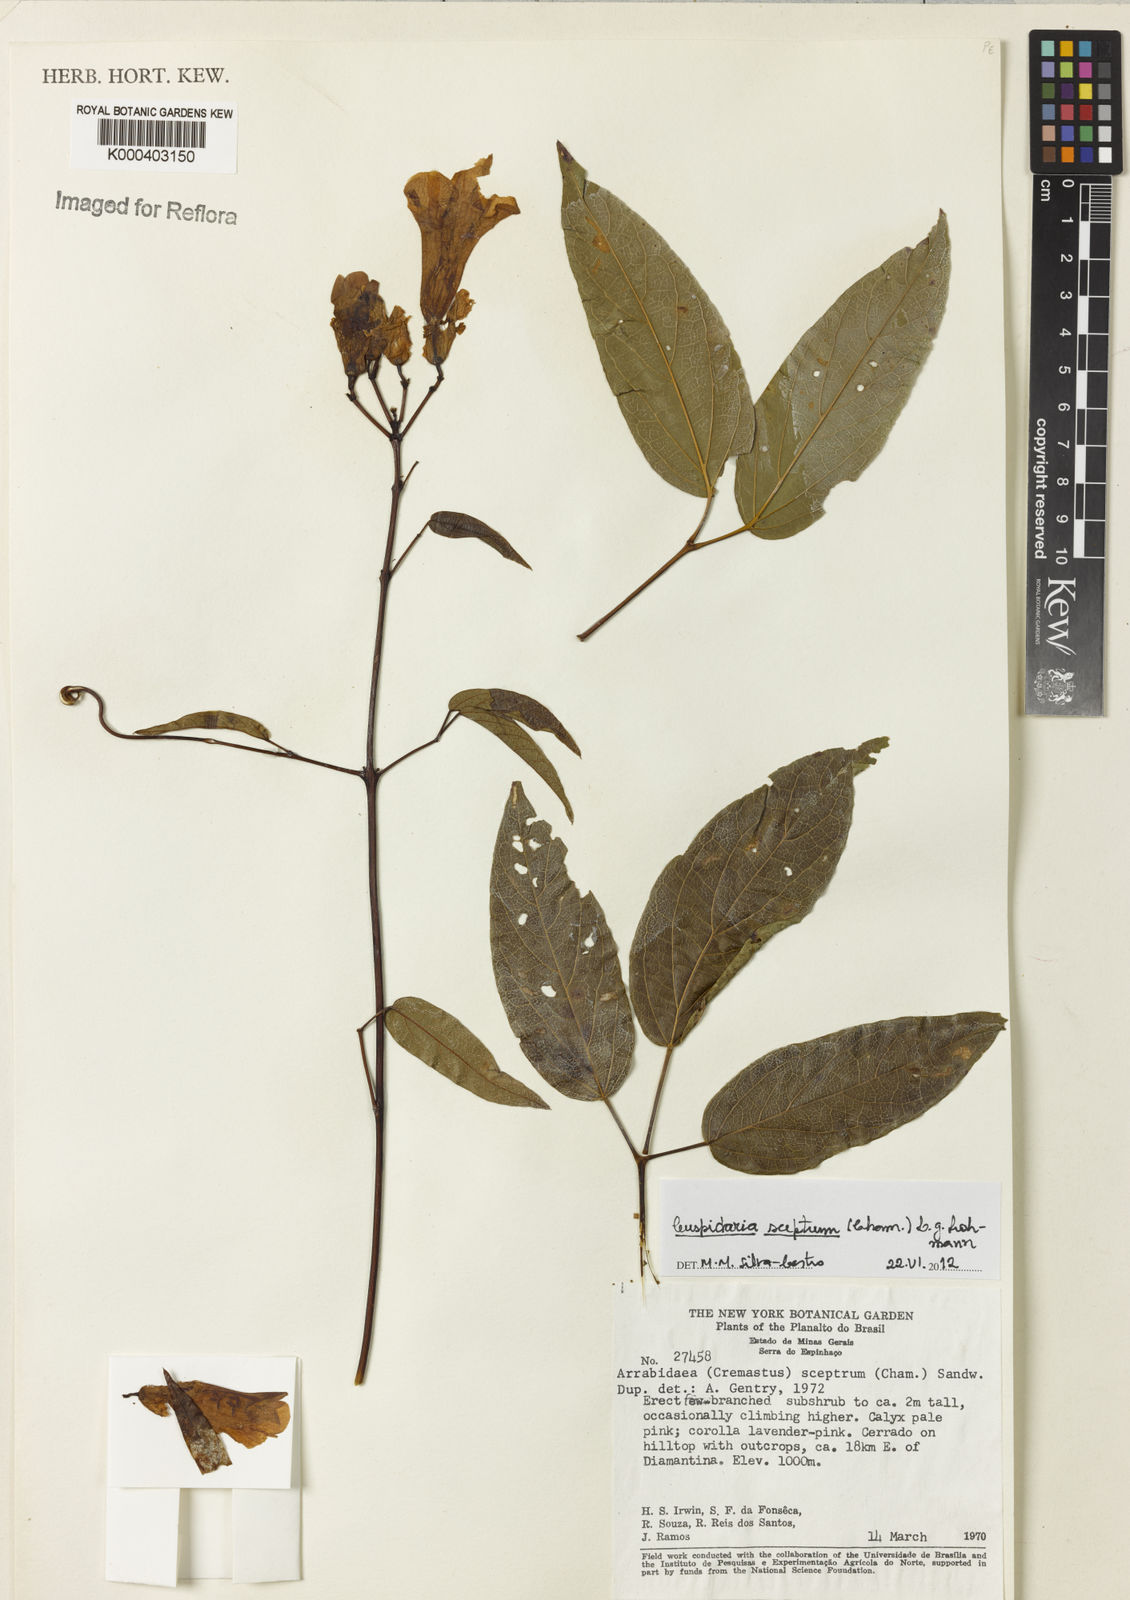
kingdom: Plantae
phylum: Tracheophyta
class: Magnoliopsida
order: Lamiales
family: Bignoniaceae
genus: Cuspidaria
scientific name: Cuspidaria sceptrum
